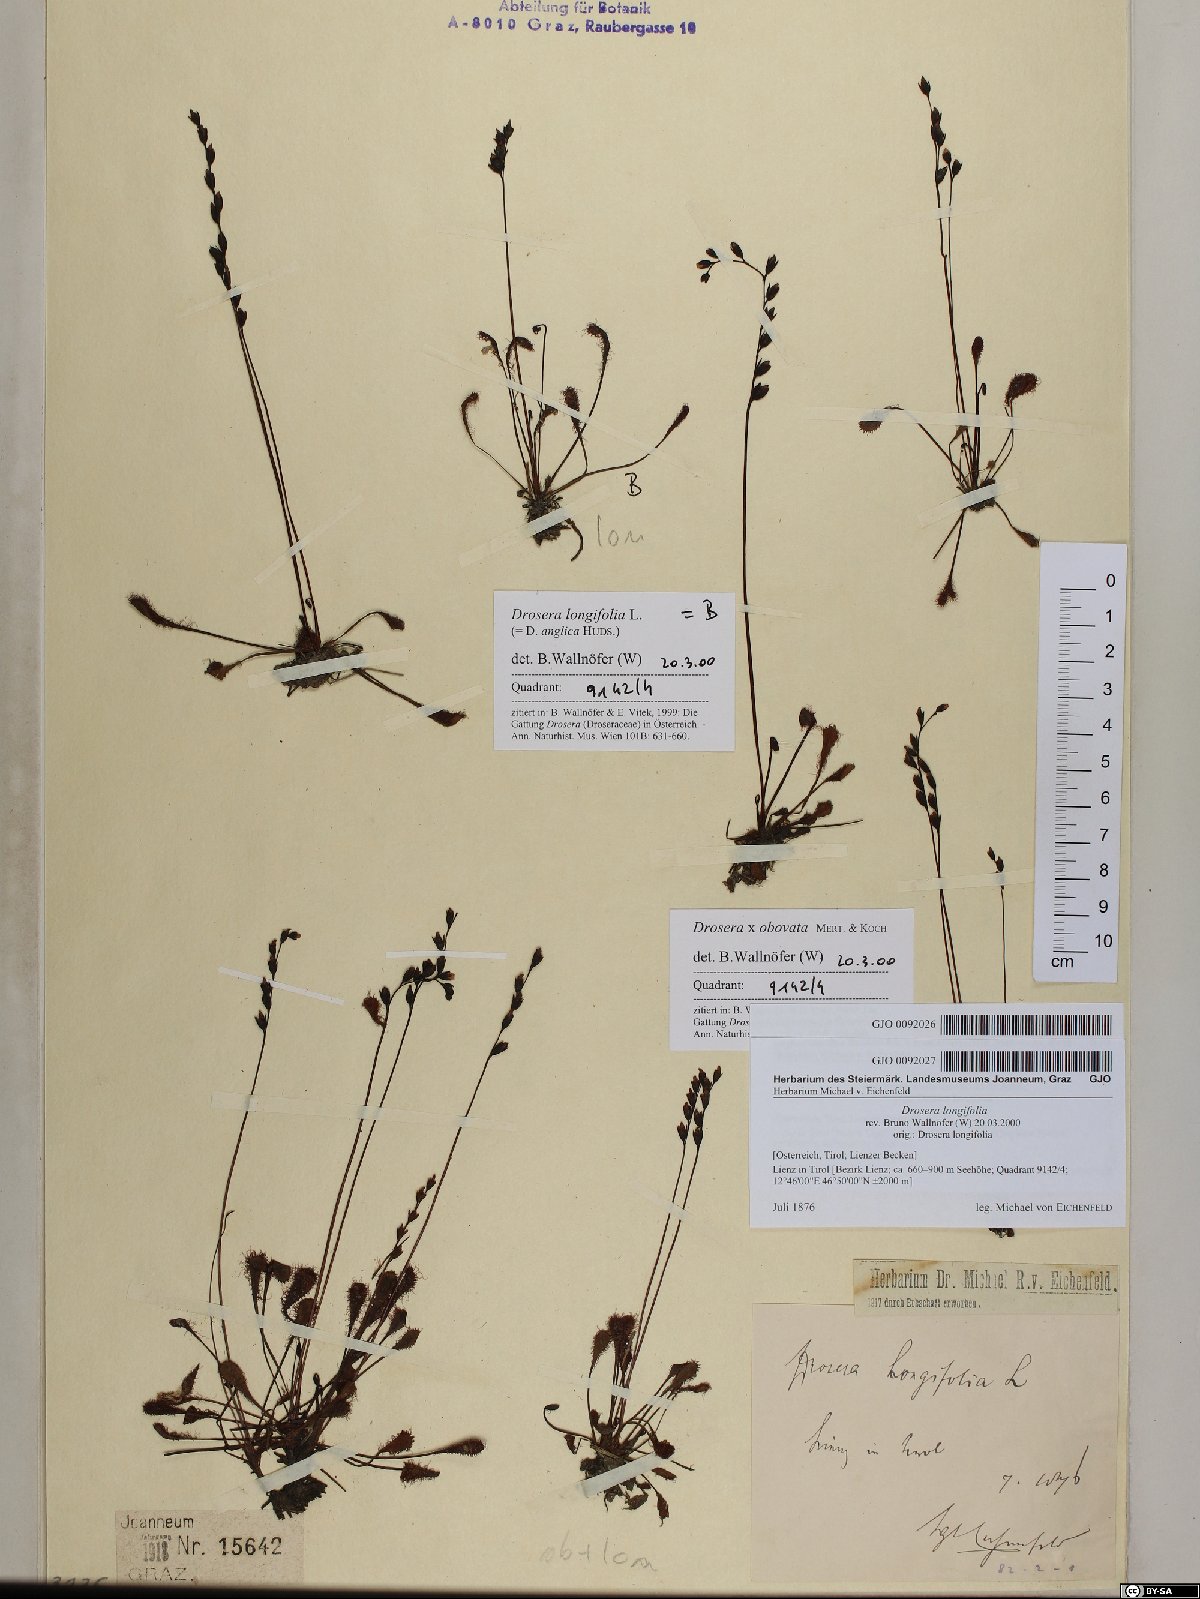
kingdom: Plantae
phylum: Tracheophyta
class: Magnoliopsida
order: Caryophyllales
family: Droseraceae
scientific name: Droseraceae
